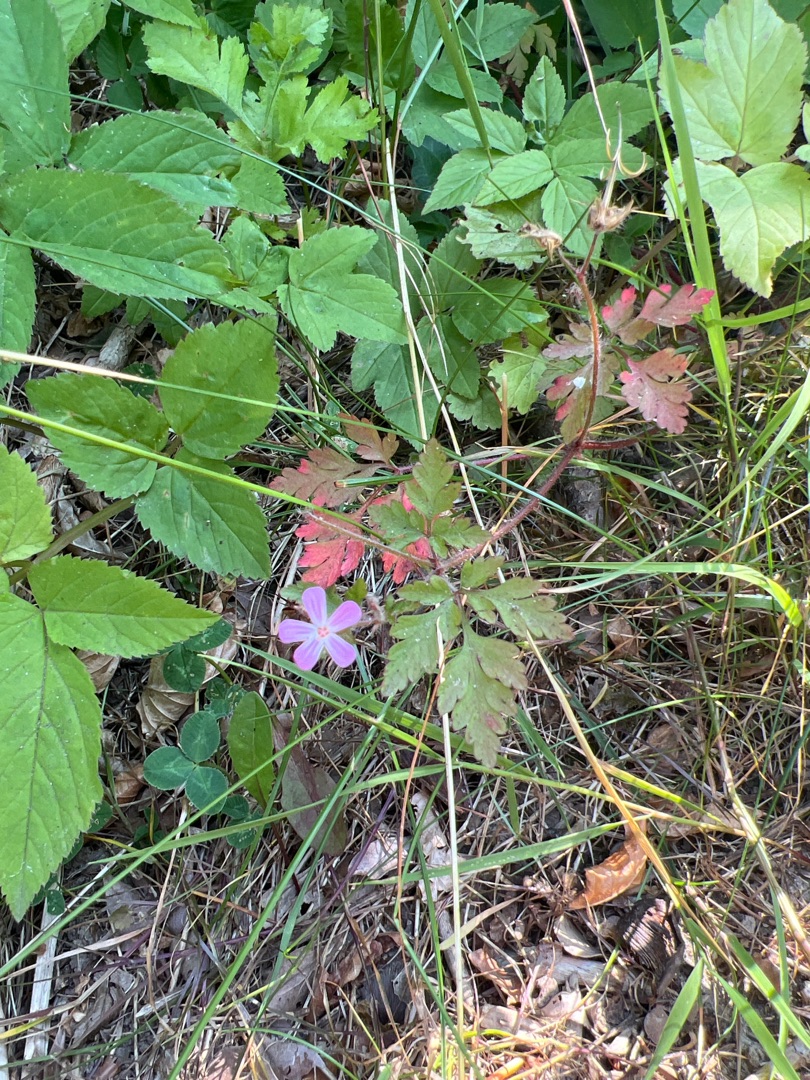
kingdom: Plantae
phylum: Tracheophyta
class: Magnoliopsida
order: Geraniales
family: Geraniaceae
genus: Geranium
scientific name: Geranium robertianum
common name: Stinkende storkenæb
